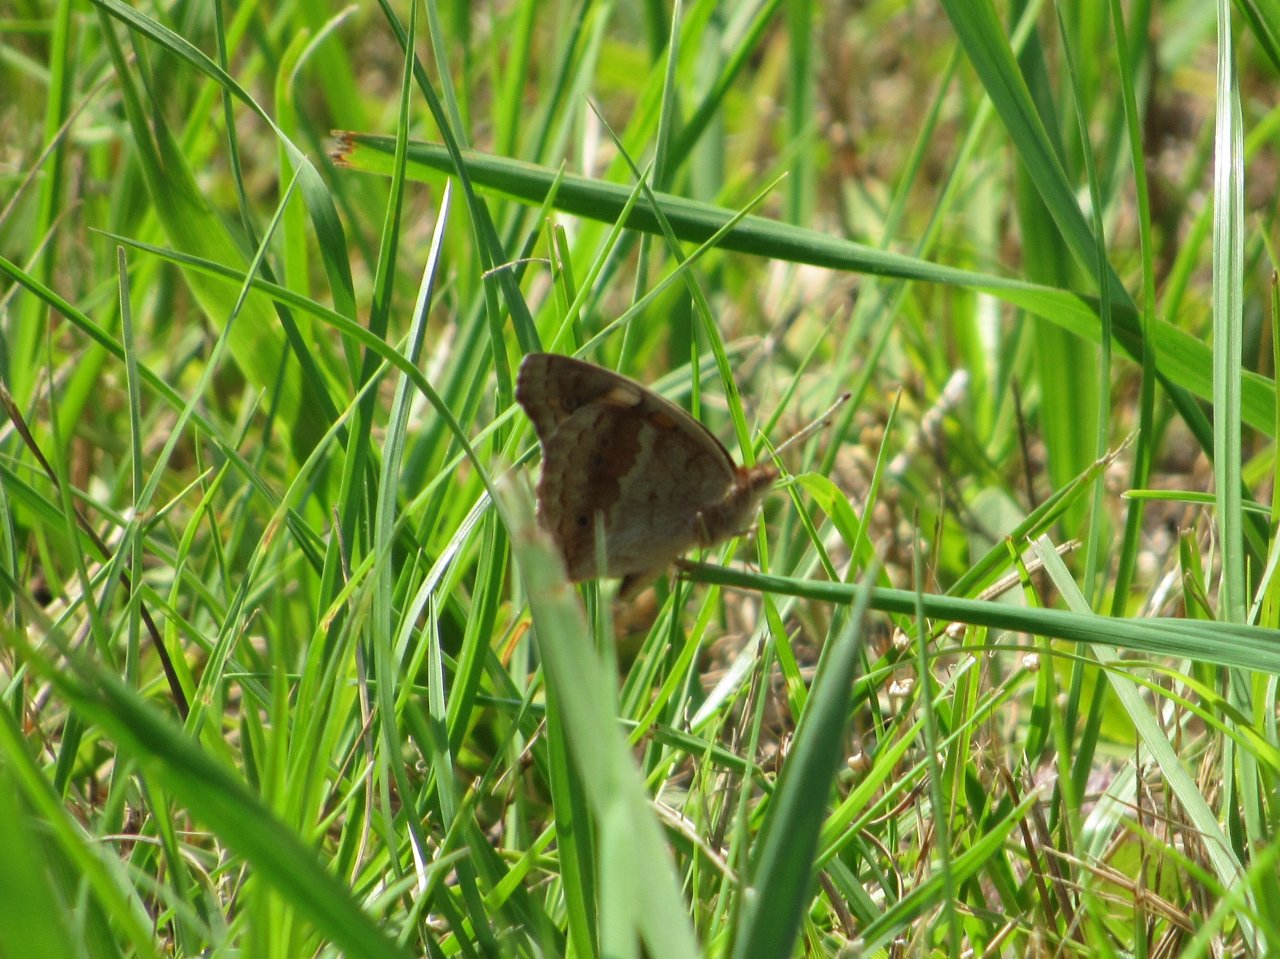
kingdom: Animalia
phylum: Arthropoda
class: Insecta
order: Lepidoptera
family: Nymphalidae
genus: Junonia
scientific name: Junonia coenia
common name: Common Buckeye
